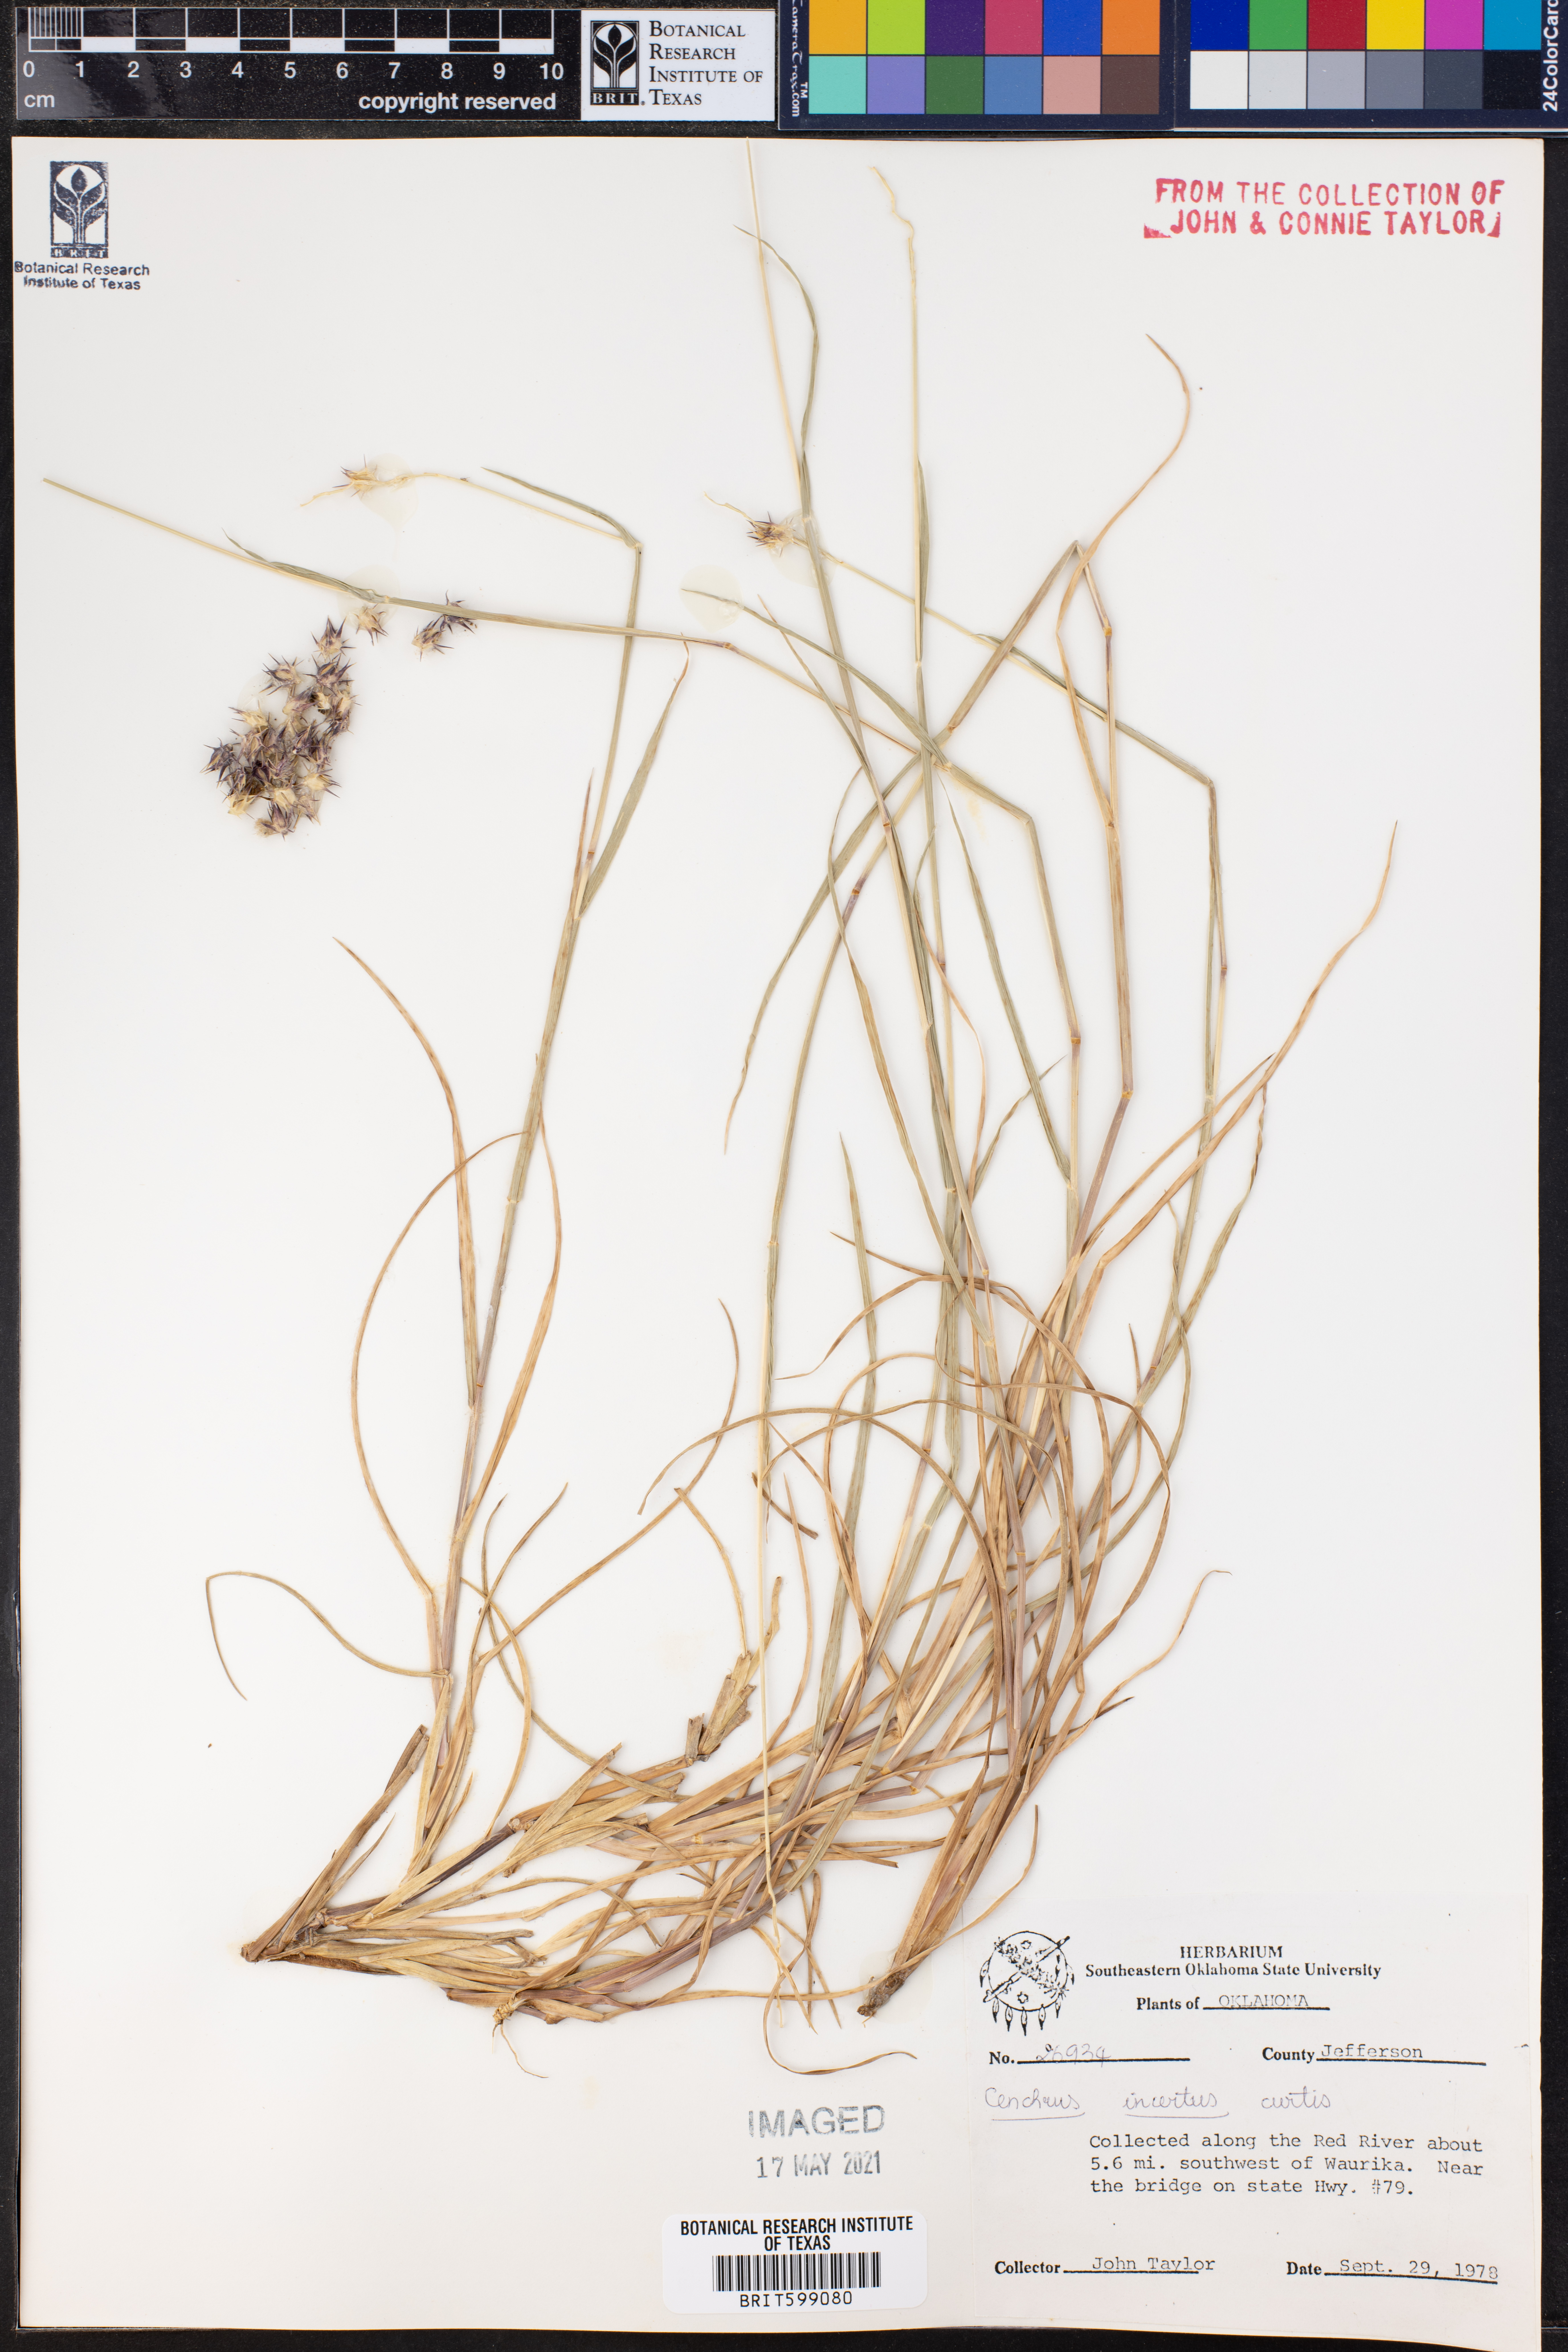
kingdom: Plantae
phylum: Tracheophyta
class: Liliopsida
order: Poales
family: Poaceae
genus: Cenchrus
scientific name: Cenchrus spinifex
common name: Coast sandbur
